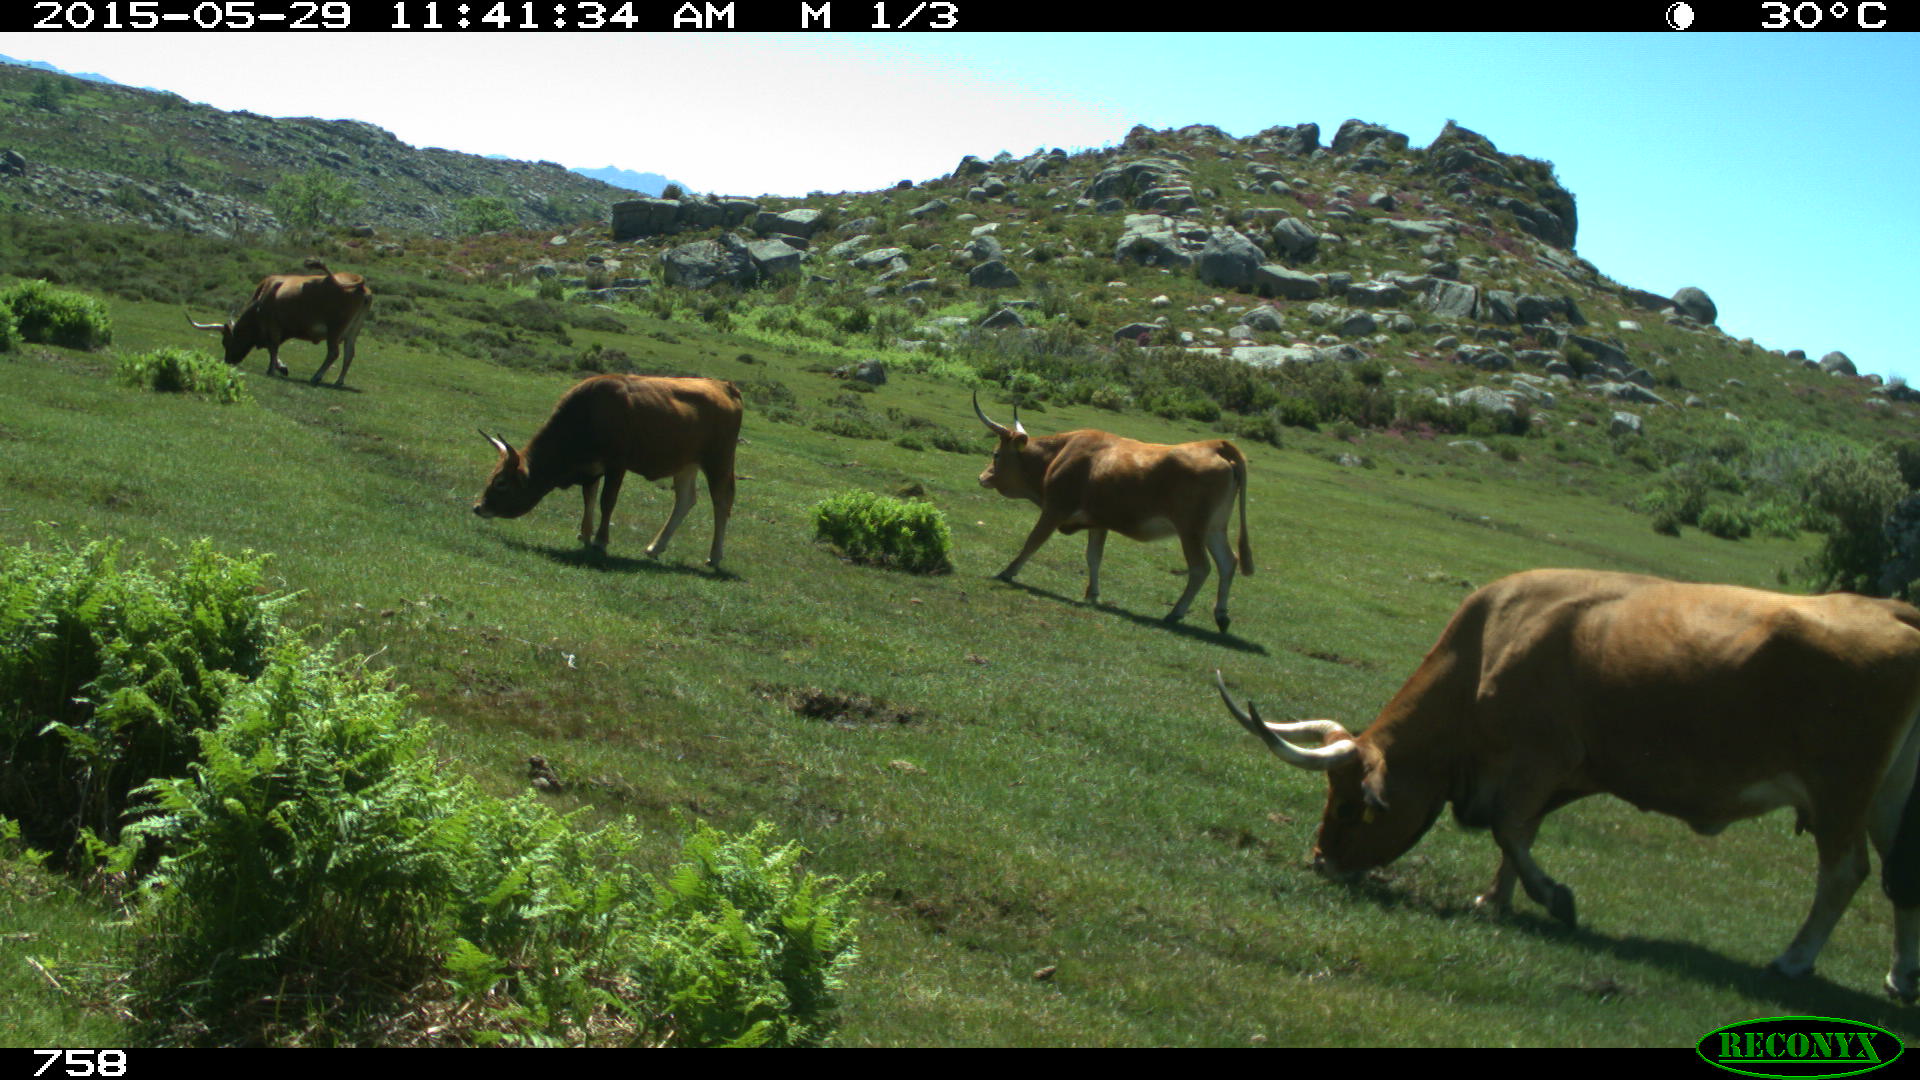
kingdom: Animalia
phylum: Chordata
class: Mammalia
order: Artiodactyla
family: Bovidae
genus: Bos
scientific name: Bos taurus
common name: Domesticated cattle
